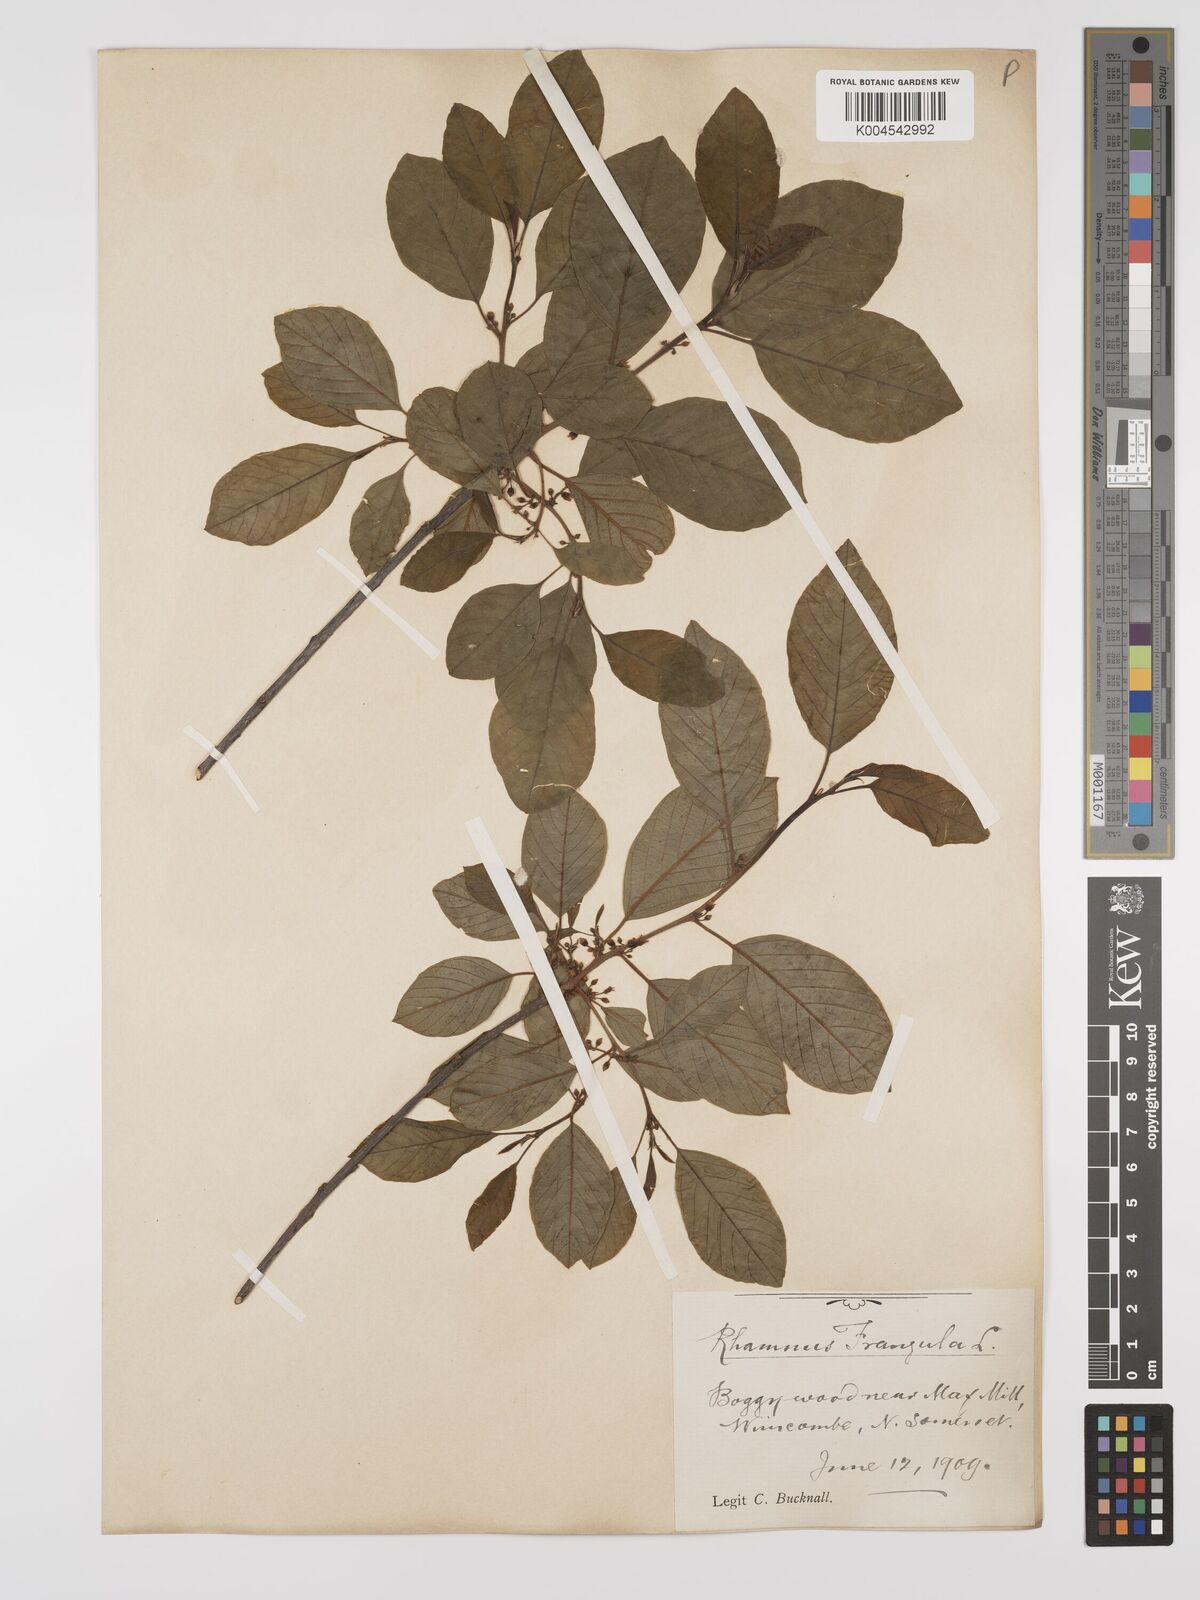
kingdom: Plantae
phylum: Tracheophyta
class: Magnoliopsida
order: Rosales
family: Rhamnaceae
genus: Frangula
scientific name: Frangula alnus
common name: Alder buckthorn
